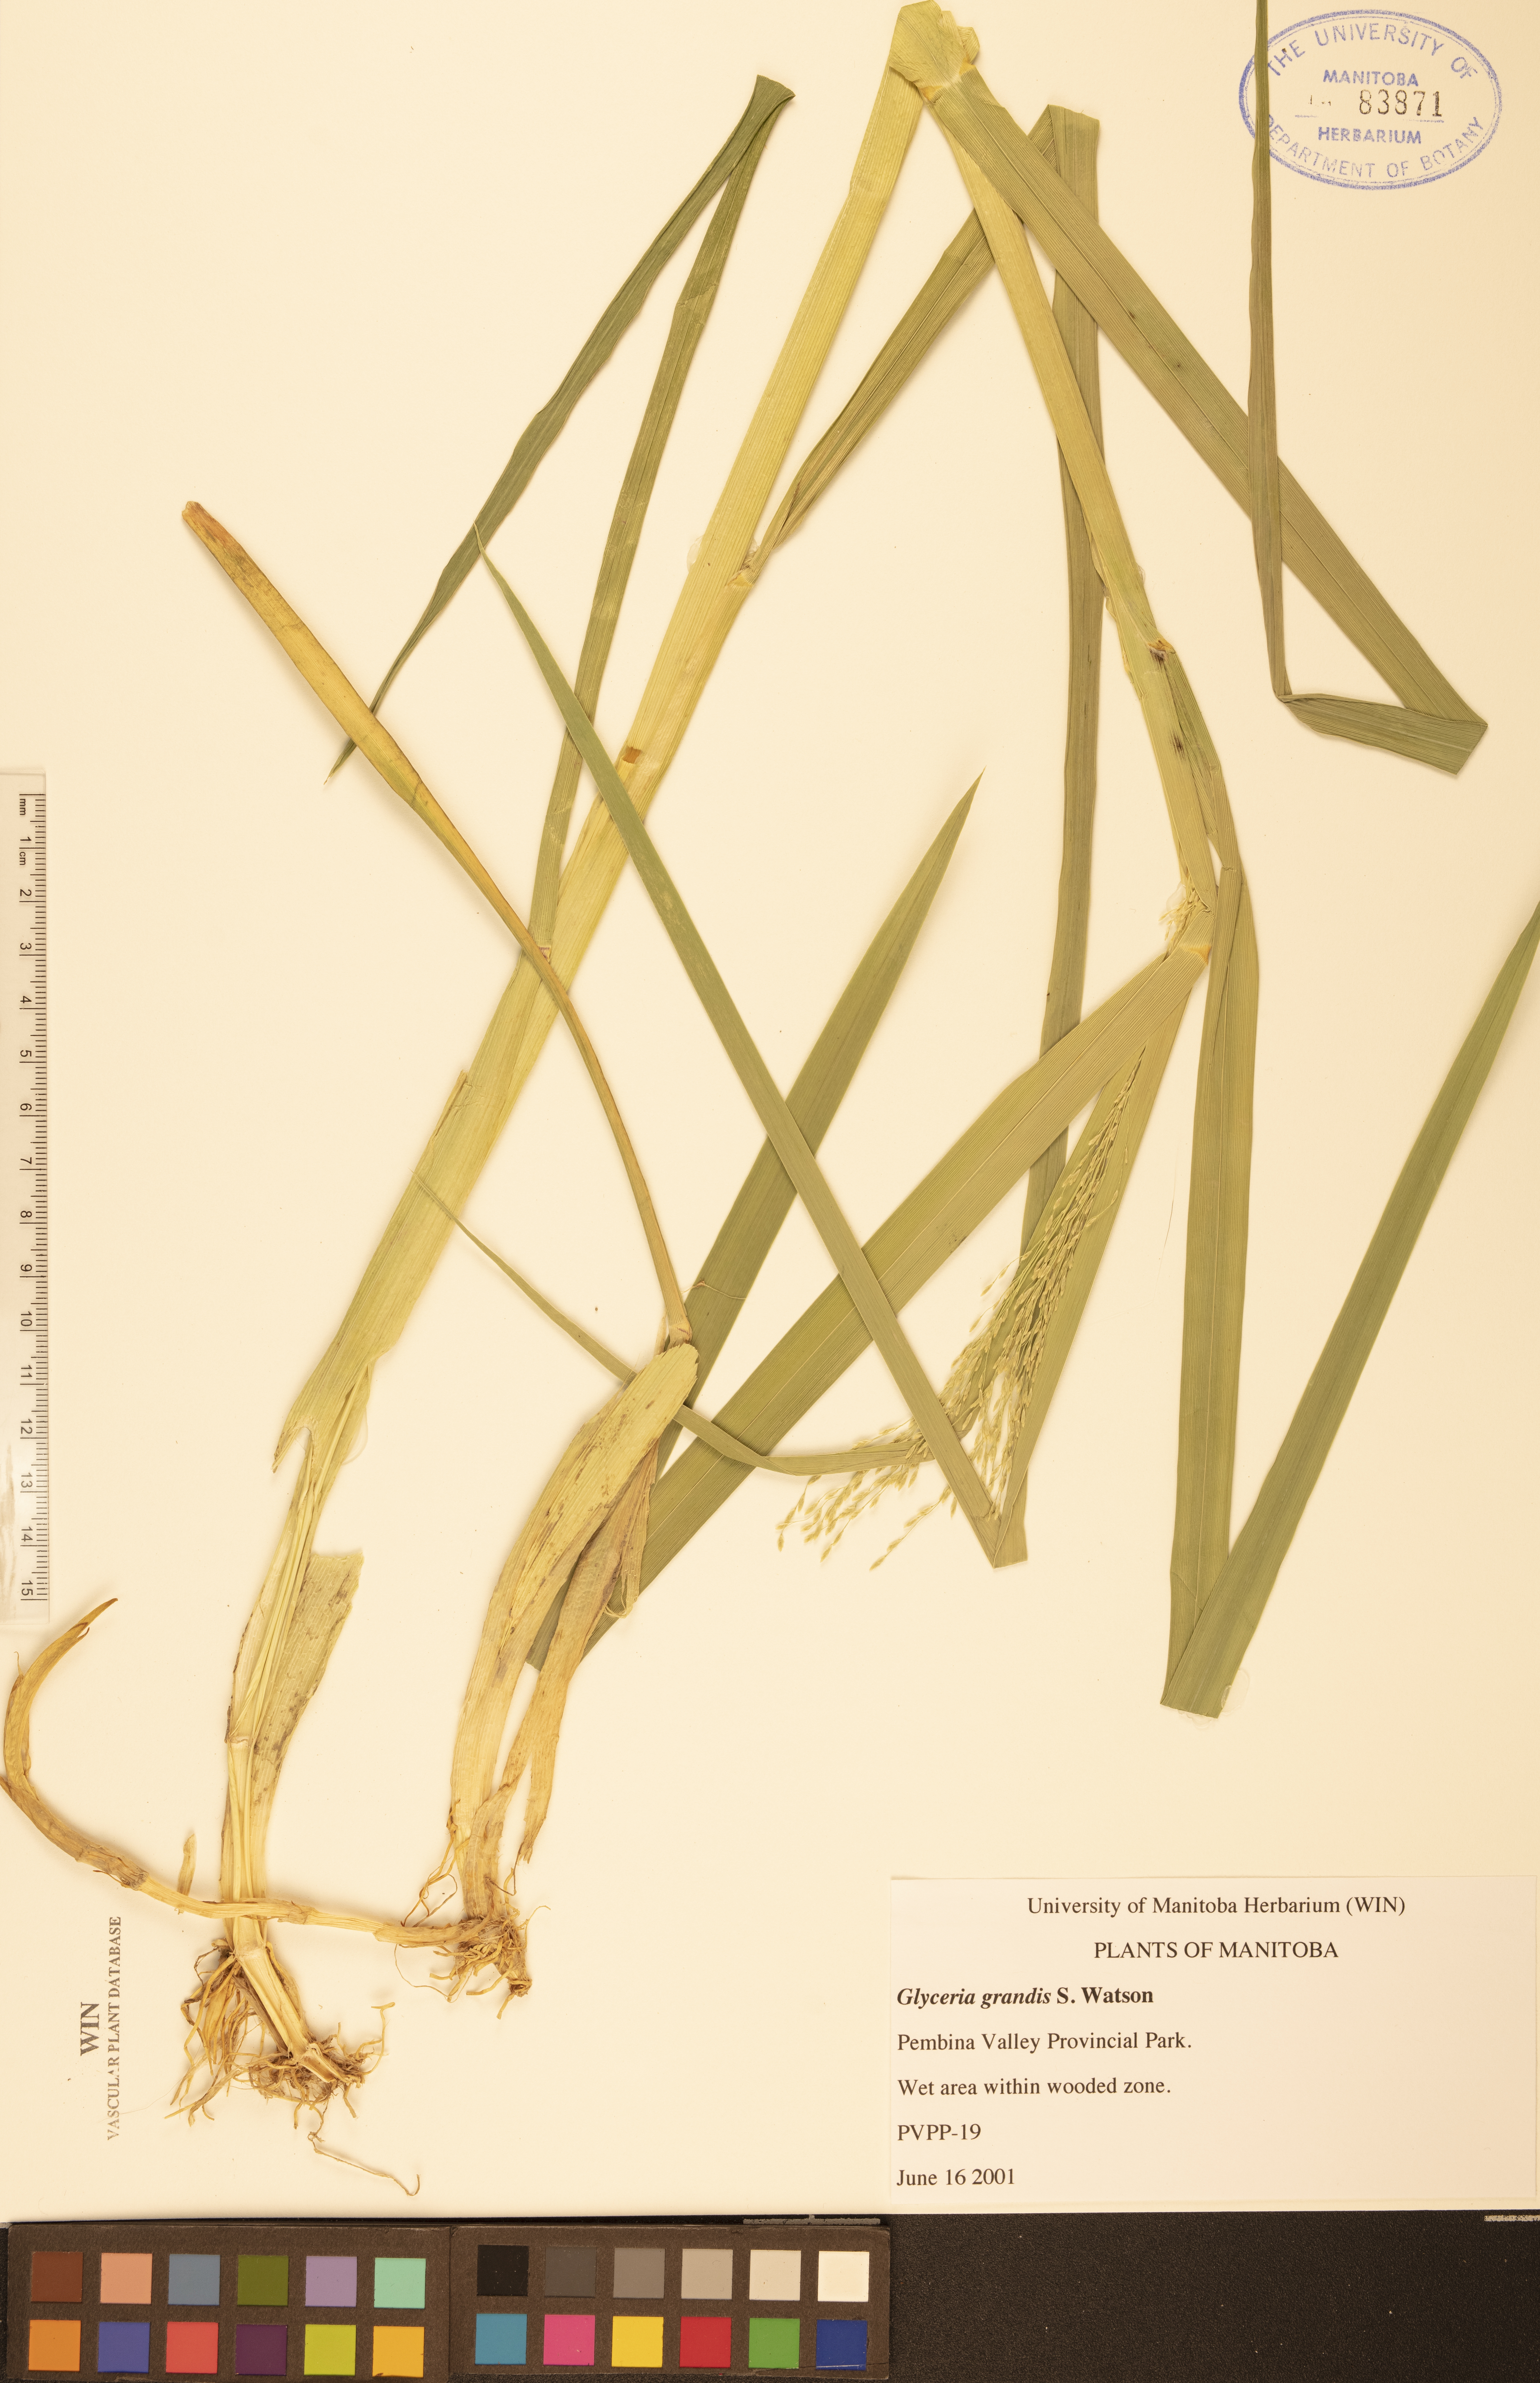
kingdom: Plantae
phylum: Tracheophyta
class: Liliopsida
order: Poales
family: Poaceae
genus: Glyceria
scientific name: Glyceria grandis
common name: American glyceria
